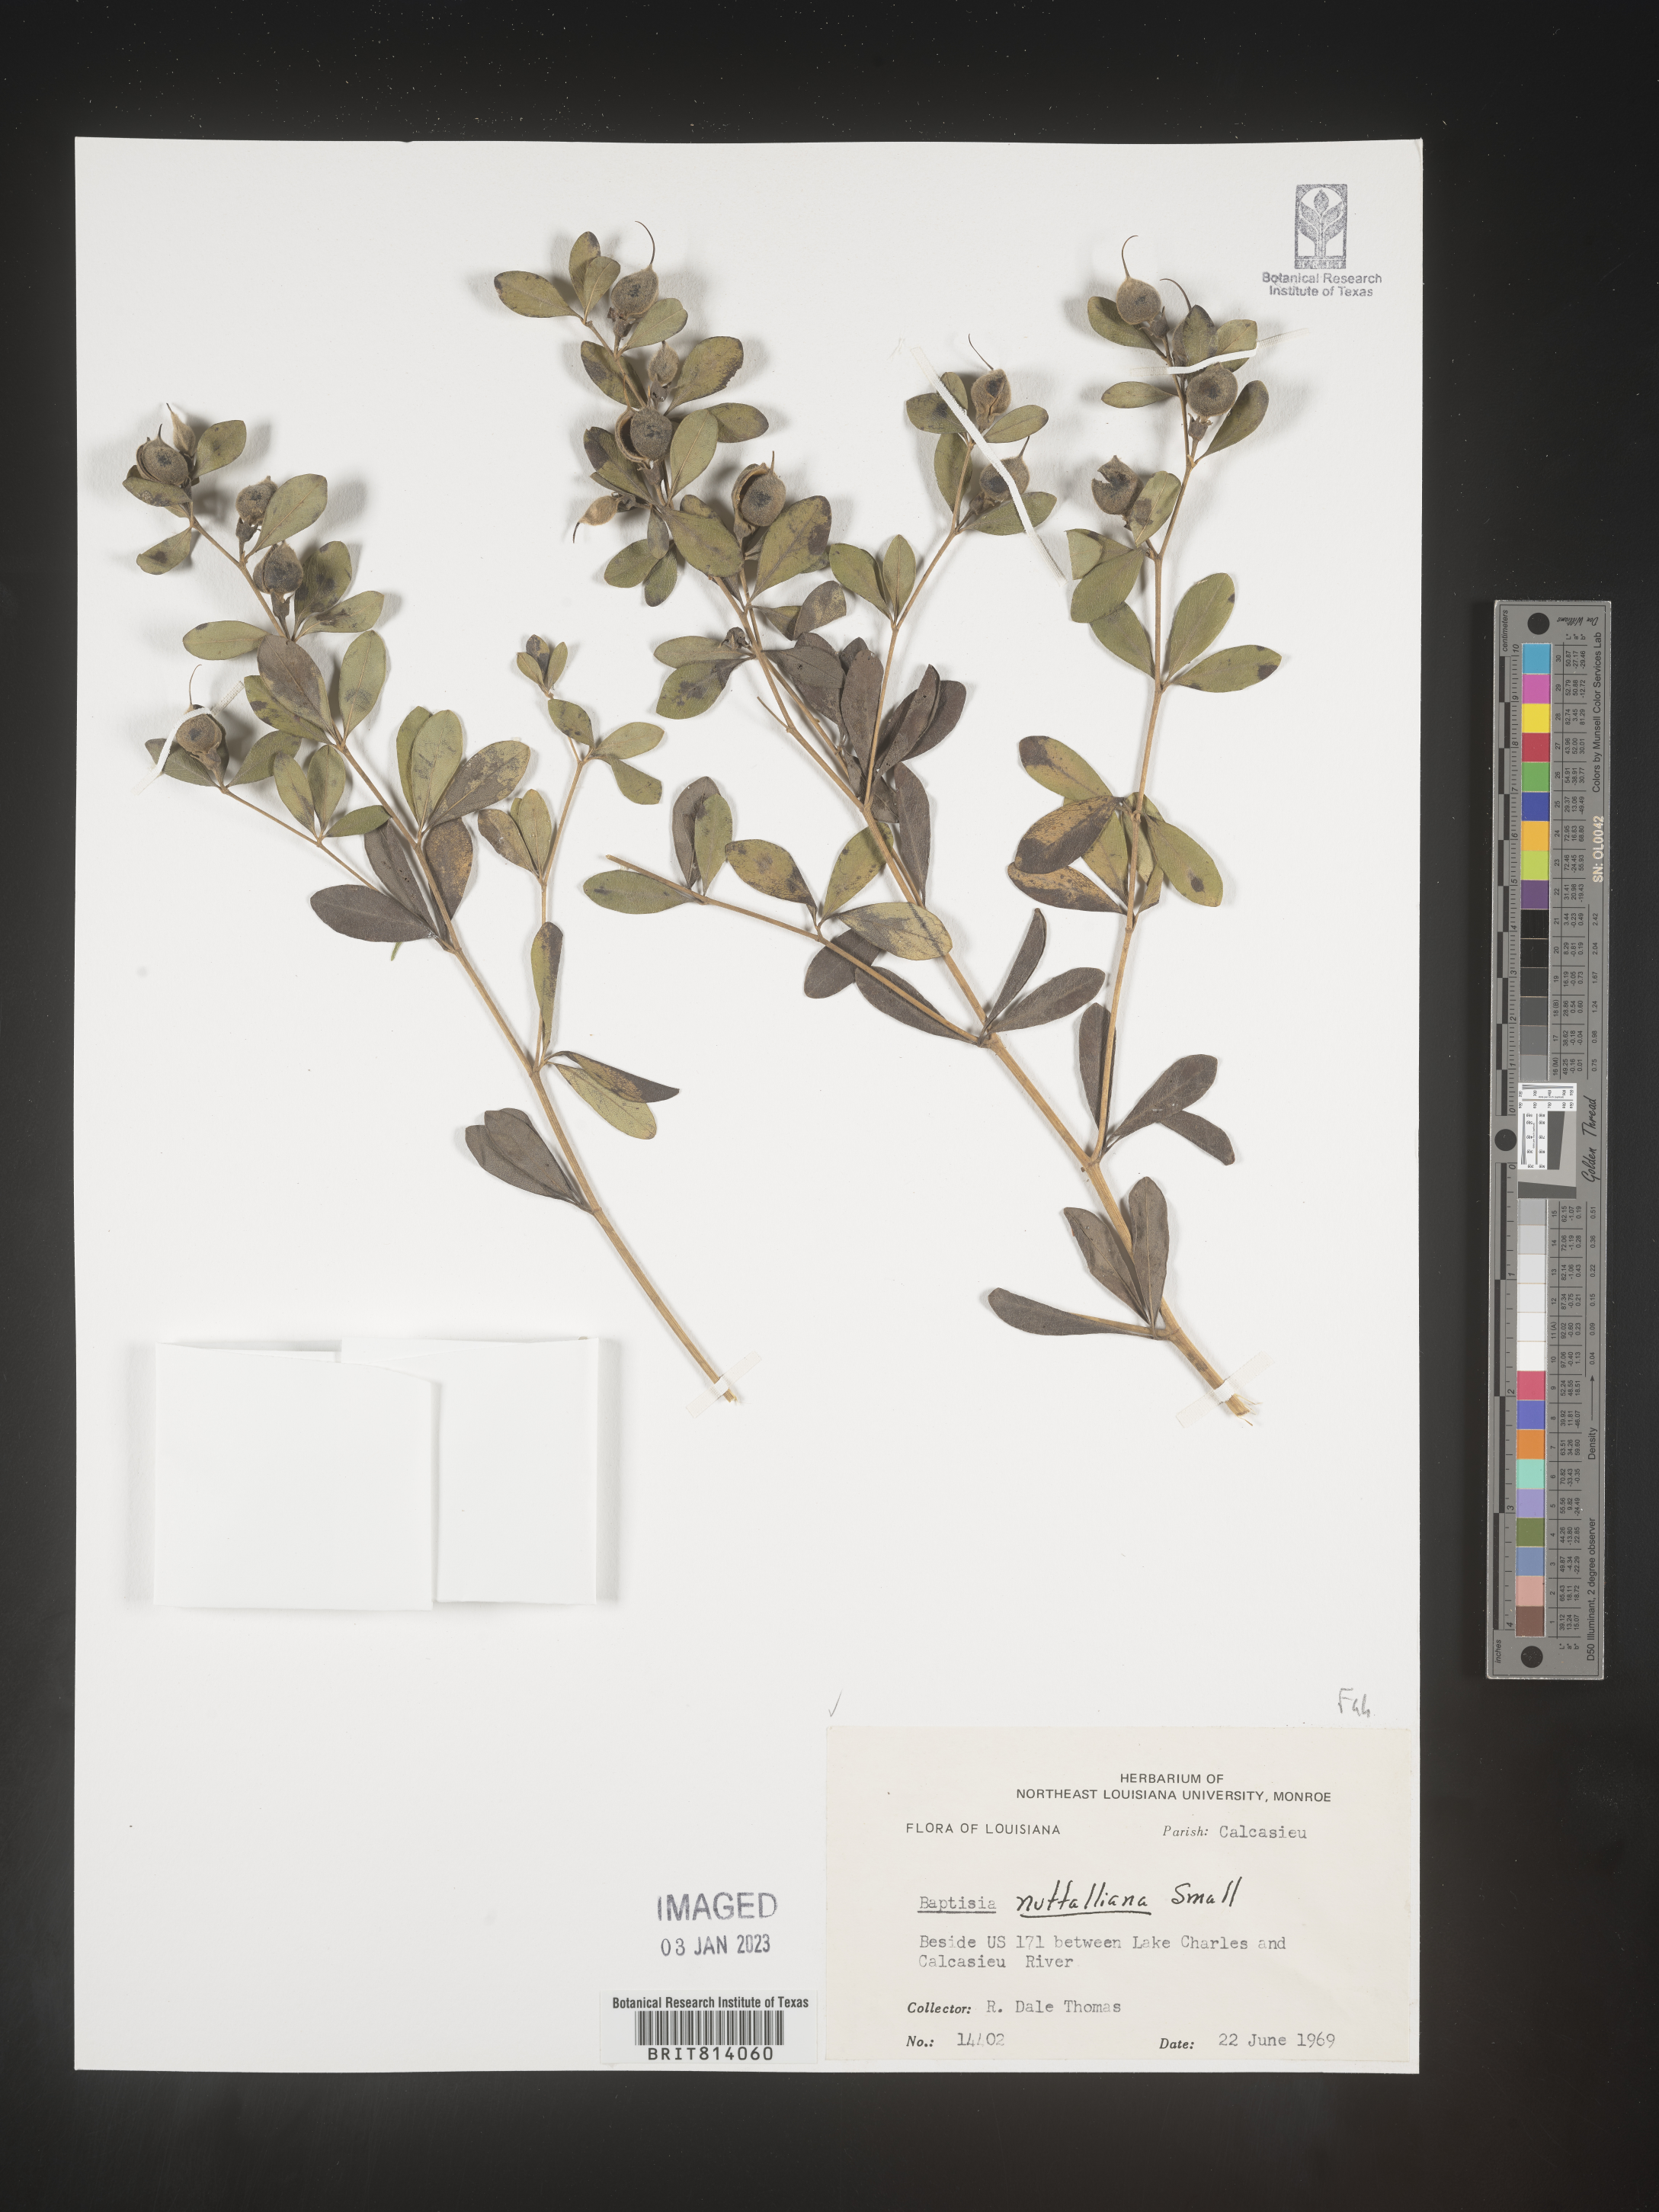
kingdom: Plantae
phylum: Tracheophyta
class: Magnoliopsida
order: Fabales
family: Fabaceae
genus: Baptisia
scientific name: Baptisia nuttalliana
